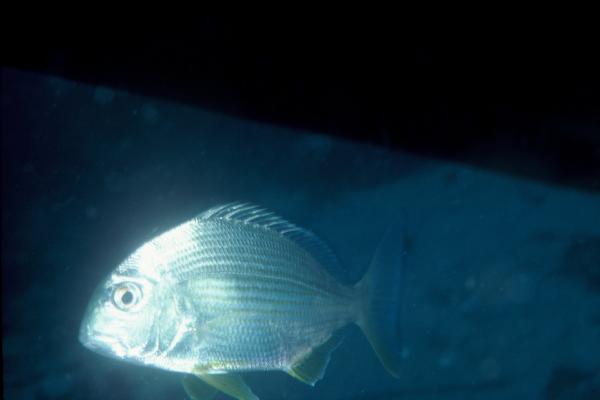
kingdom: Animalia
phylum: Chordata
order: Perciformes
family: Sparidae
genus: Rhabdosargus
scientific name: Rhabdosargus sarba
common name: Goldlined seabream
